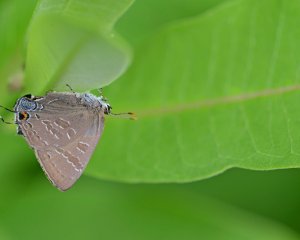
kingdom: Animalia
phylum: Arthropoda
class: Insecta
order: Lepidoptera
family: Lycaenidae
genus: Strymon
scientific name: Strymon caryaevorus
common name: Hickory Hairstreak
